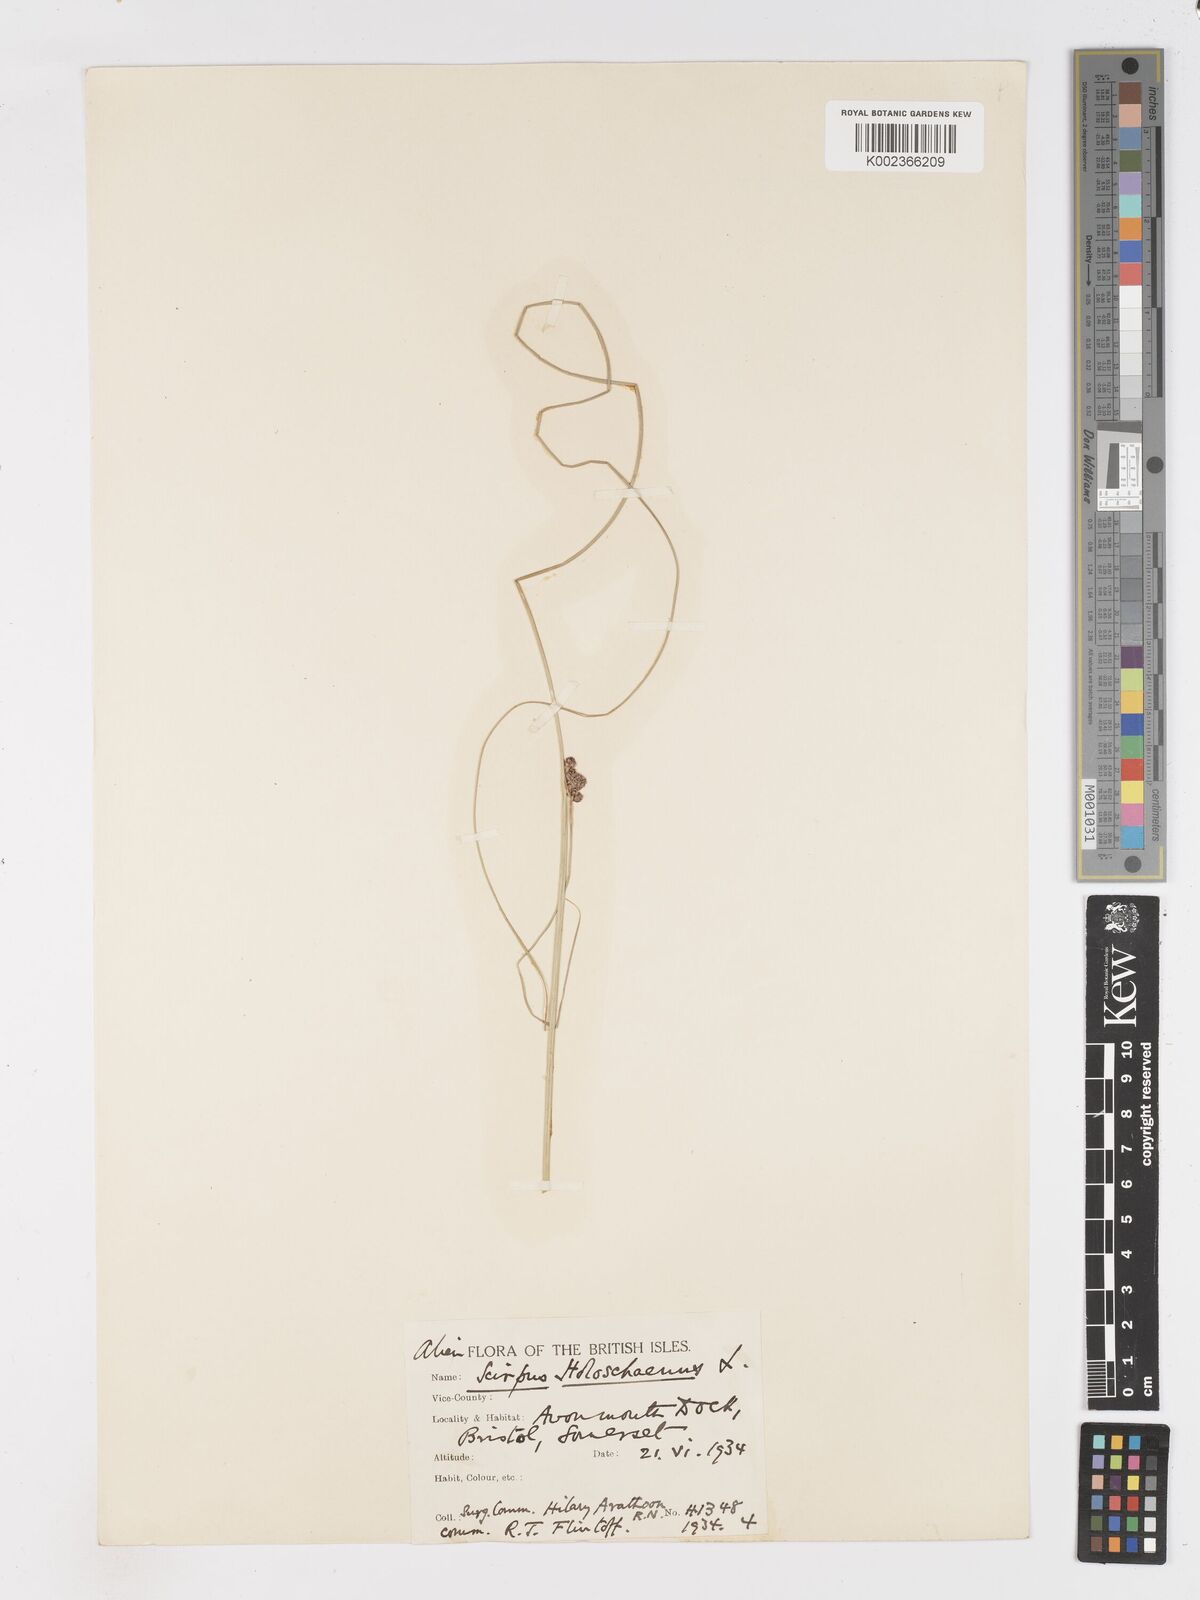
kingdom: Plantae
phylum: Tracheophyta
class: Liliopsida
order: Poales
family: Cyperaceae
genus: Scirpoides
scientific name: Scirpoides holoschoenus
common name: Round-headed club-rush
